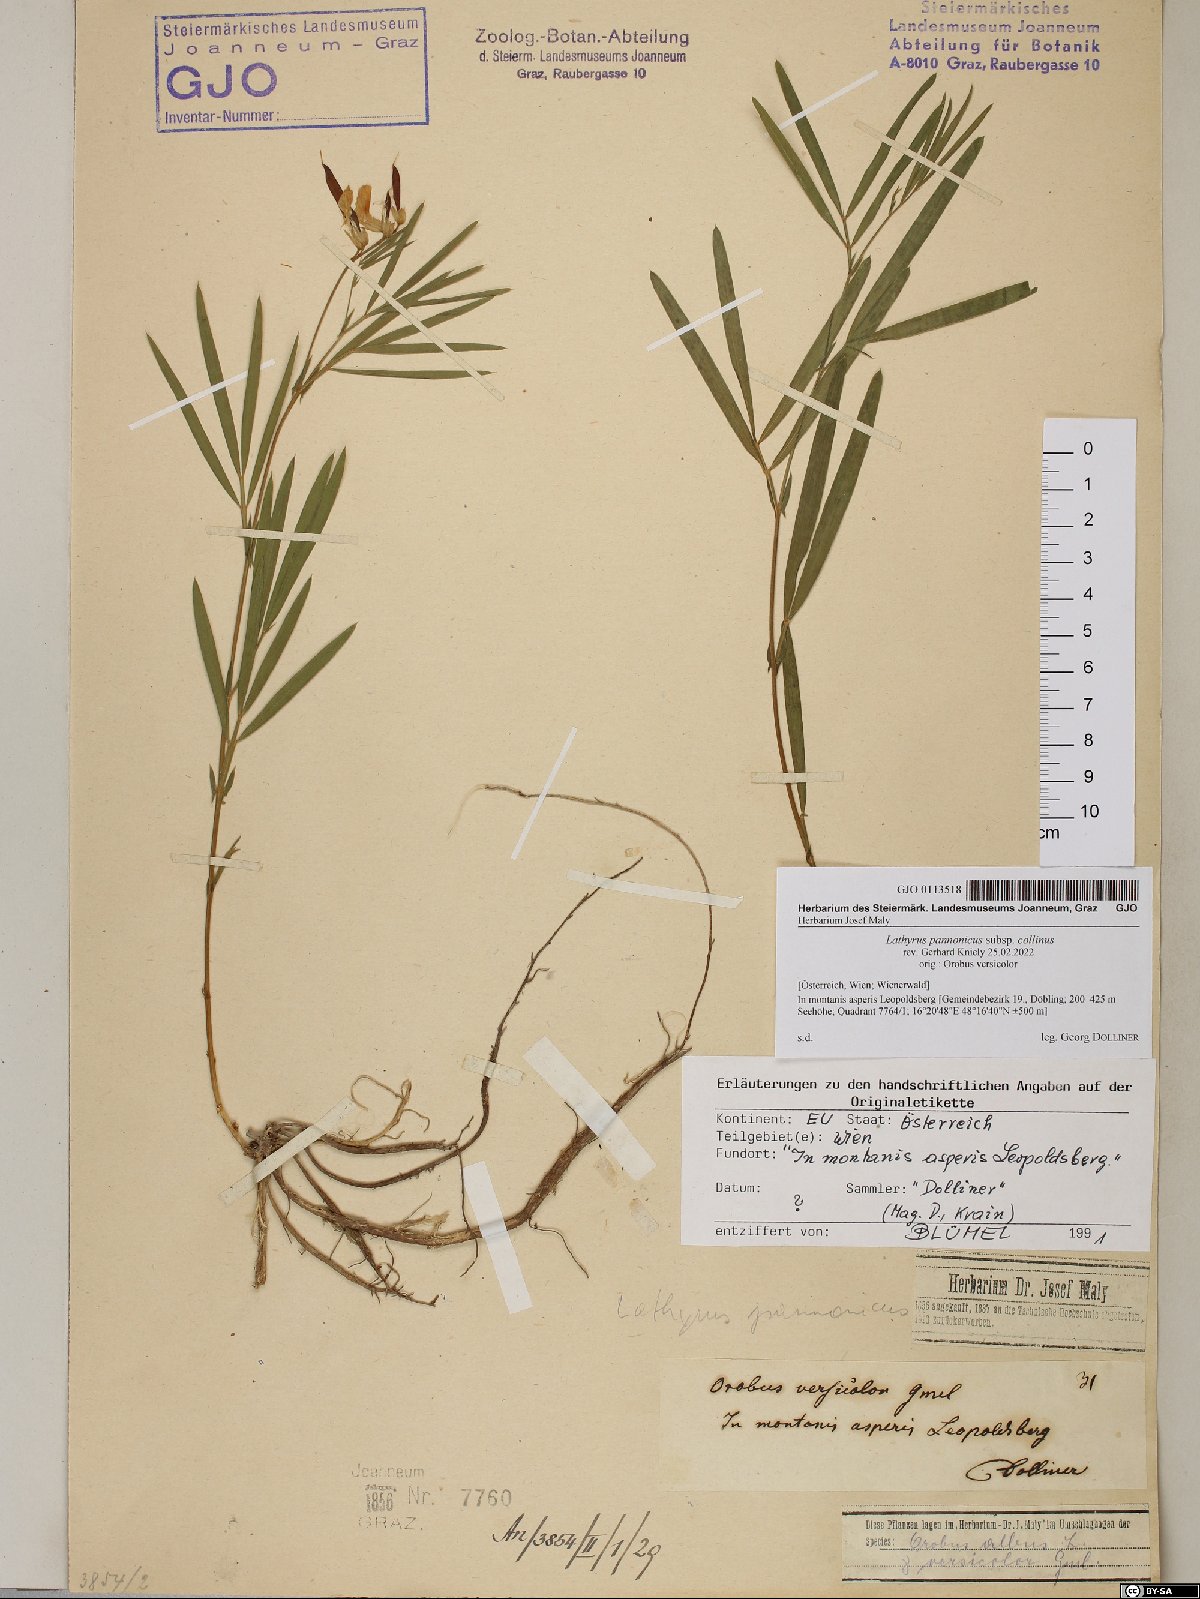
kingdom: Plantae
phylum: Tracheophyta
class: Magnoliopsida
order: Fabales
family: Fabaceae
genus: Lathyrus
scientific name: Lathyrus pannonicus
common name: Pea
